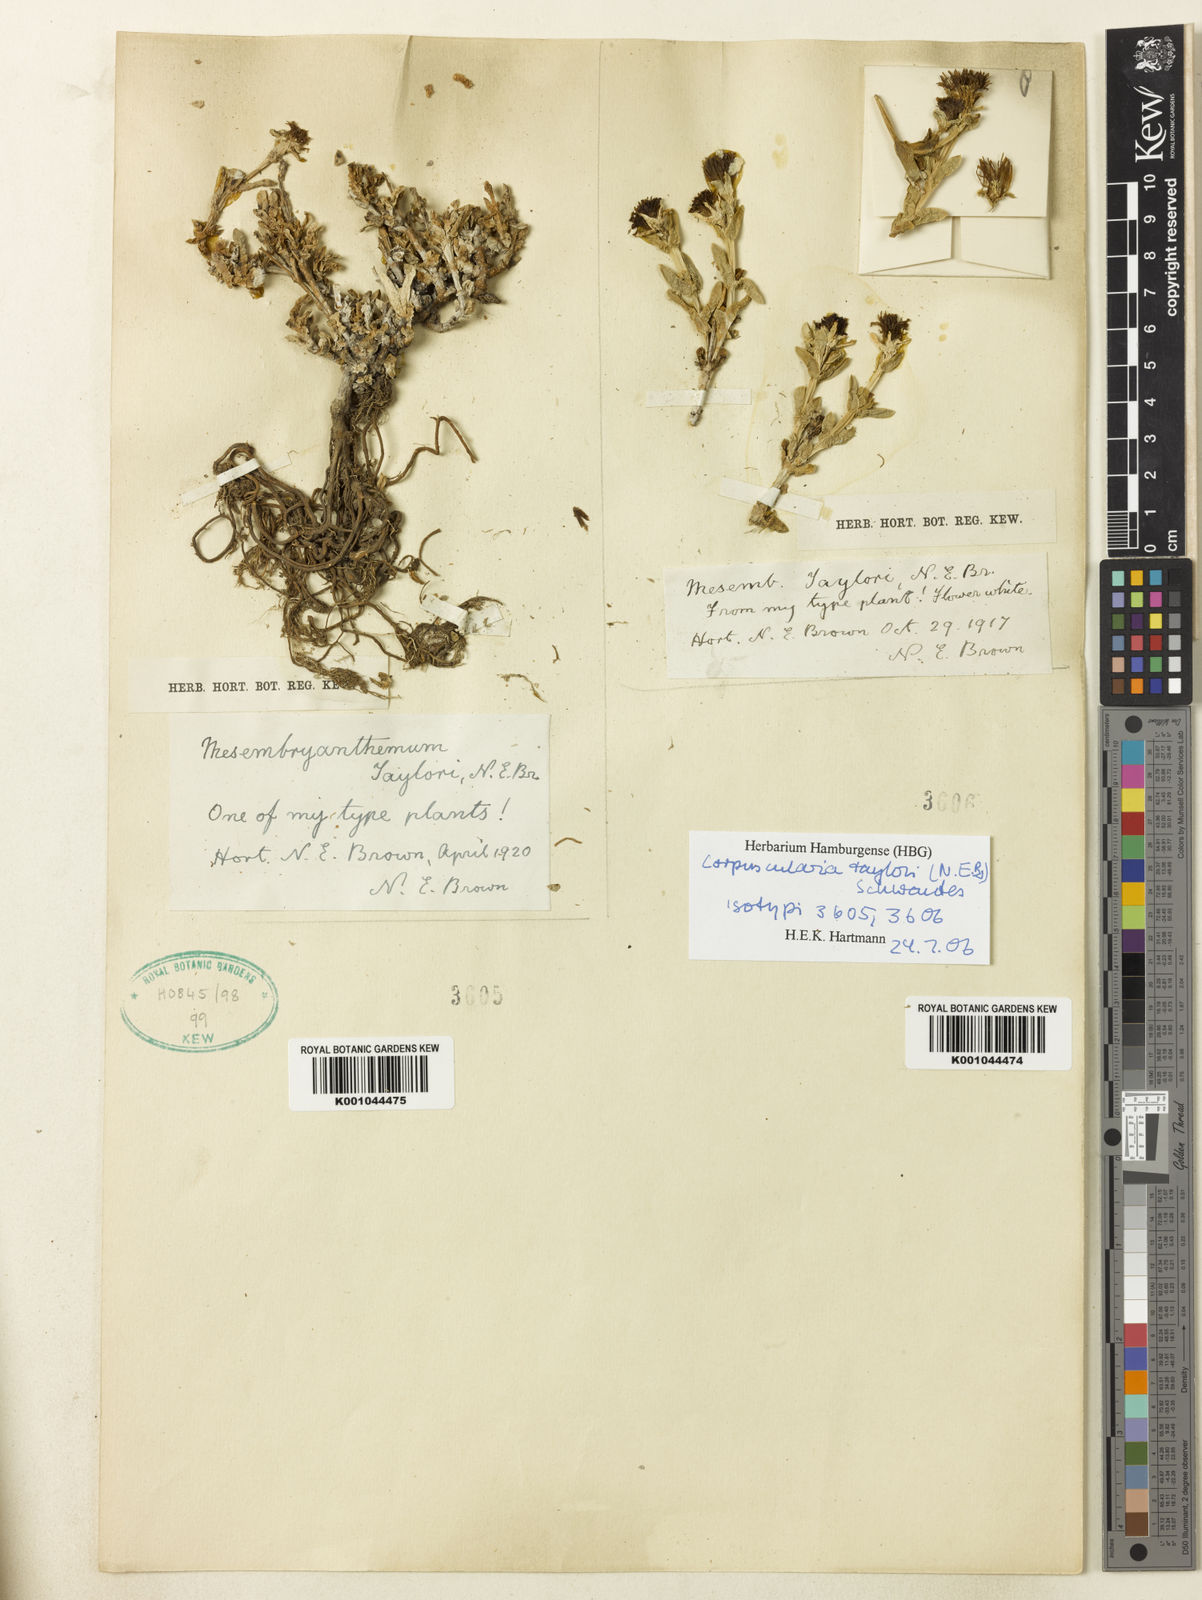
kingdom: Plantae
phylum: Tracheophyta
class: Magnoliopsida
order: Caryophyllales
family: Aizoaceae
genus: Corpuscularia
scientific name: Corpuscularia taylorii
